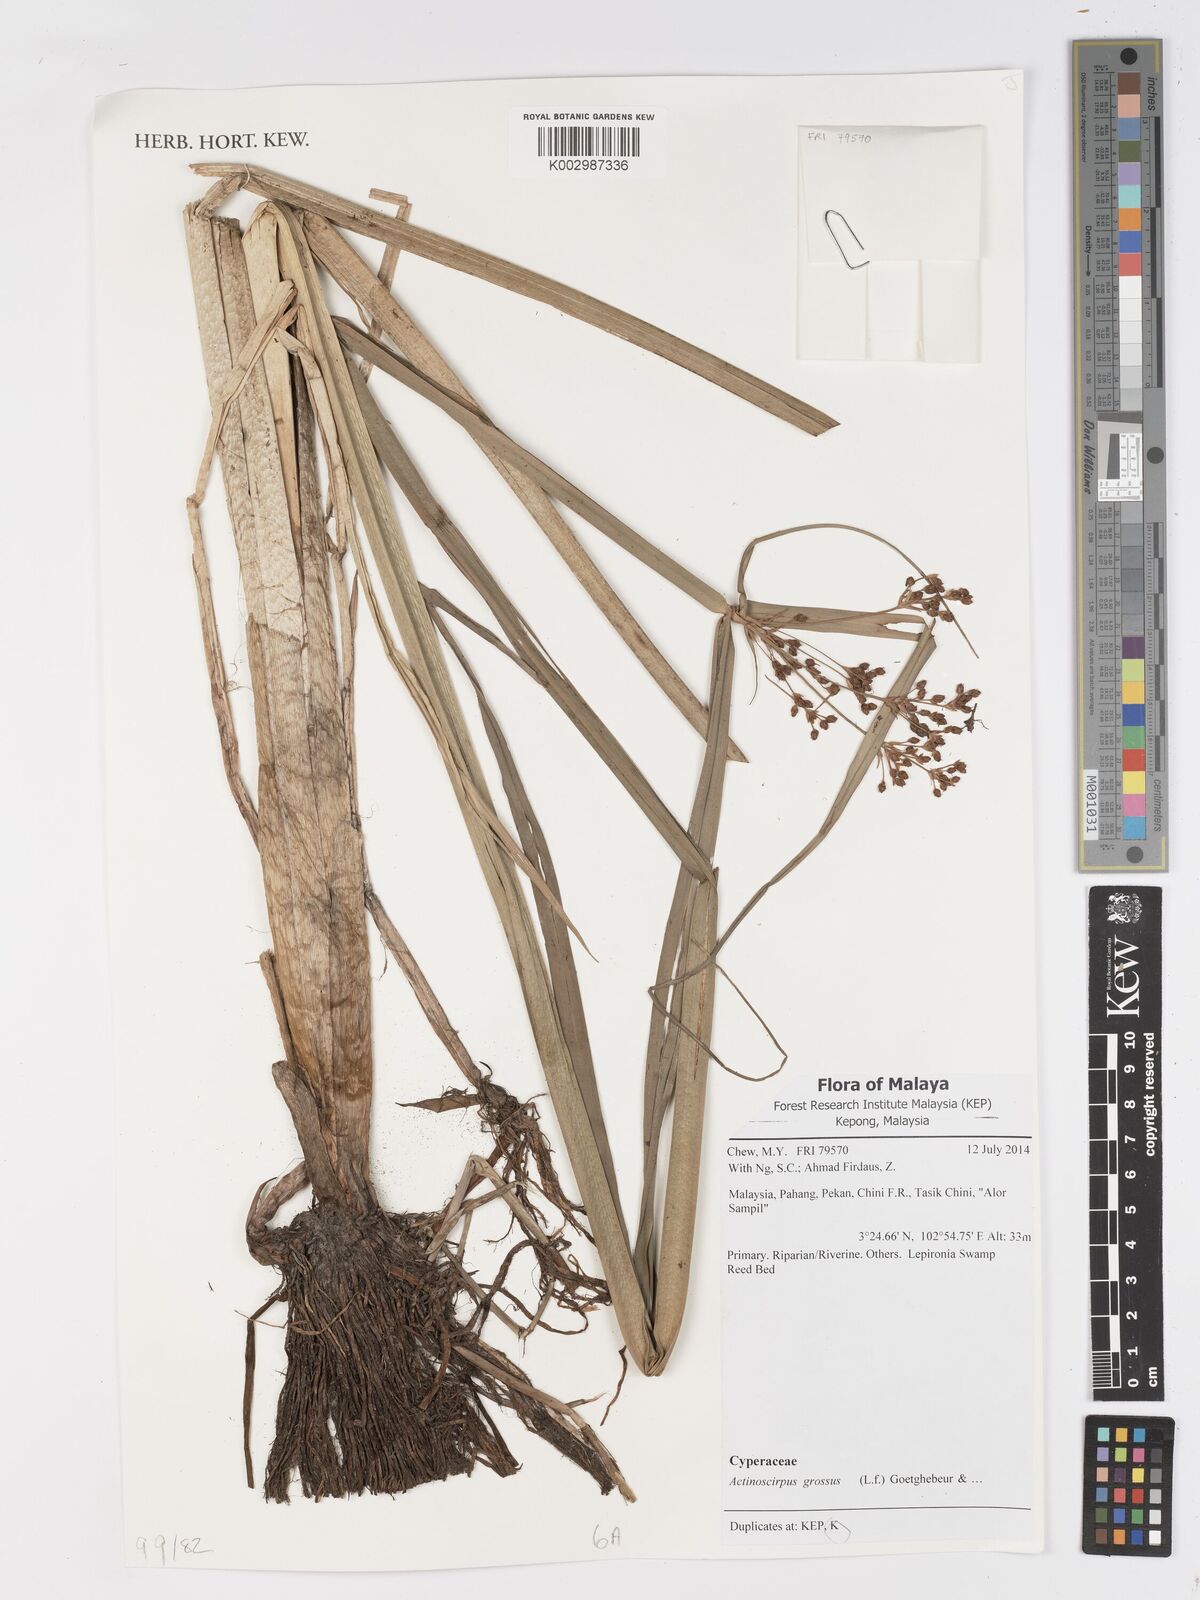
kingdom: Plantae
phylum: Tracheophyta
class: Liliopsida
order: Poales
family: Cyperaceae
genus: Actinoscirpus
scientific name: Actinoscirpus grossus
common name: Giant bur rush
